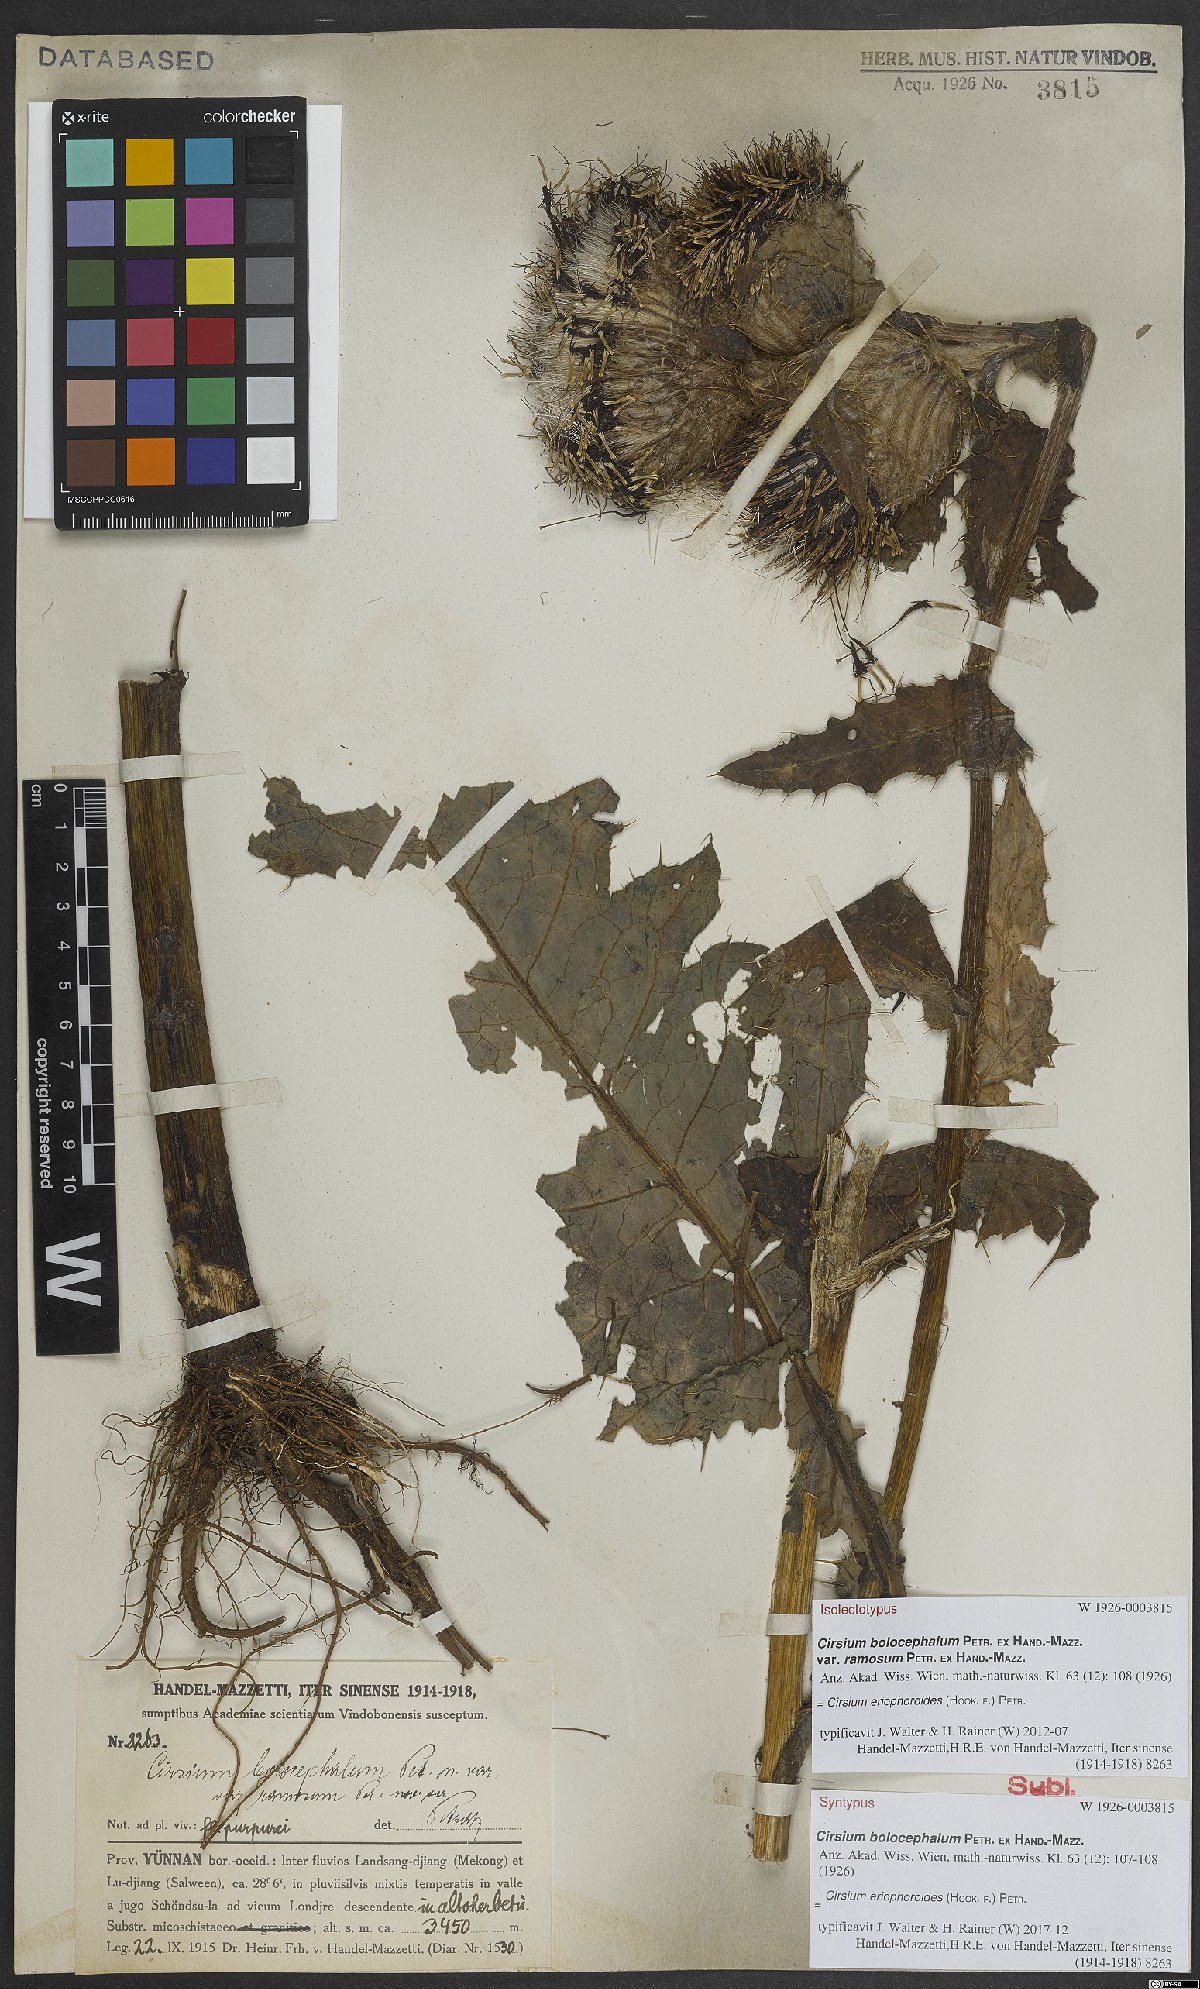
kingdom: Plantae
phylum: Tracheophyta
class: Magnoliopsida
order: Asterales
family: Asteraceae
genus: Cirsium
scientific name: Cirsium eriophoroides
